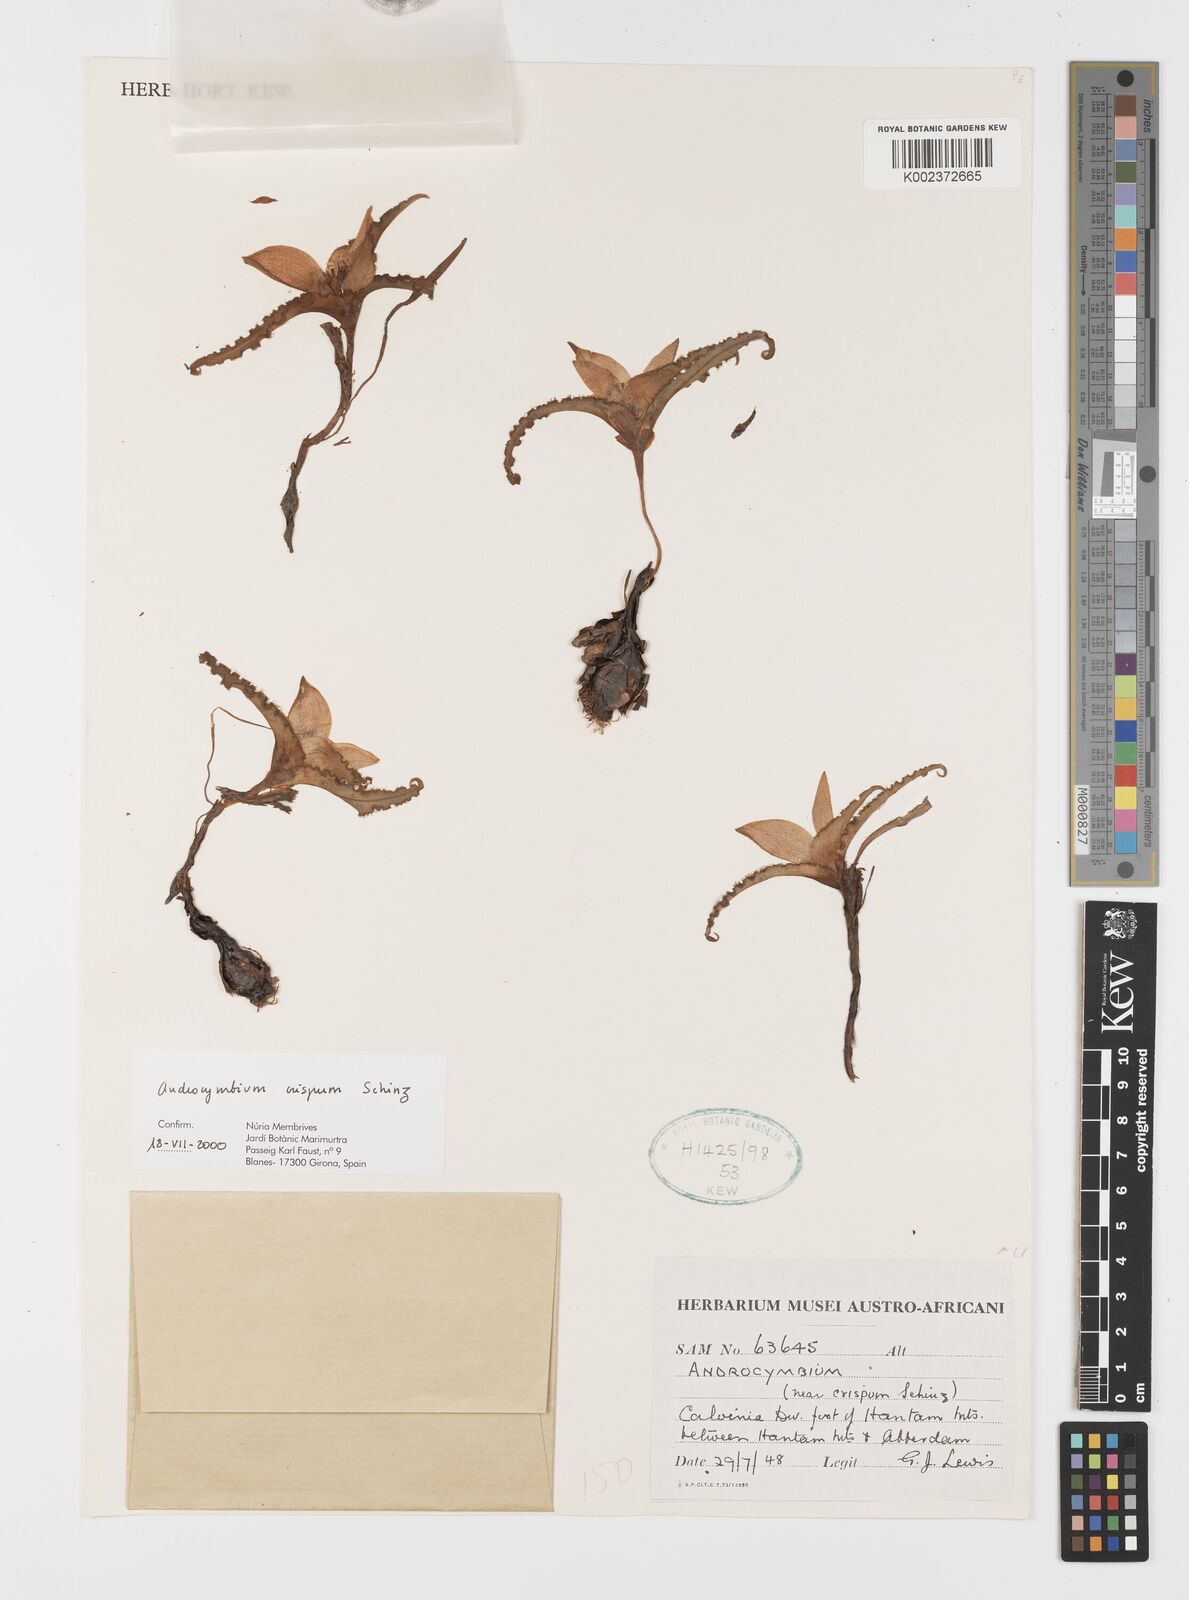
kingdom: Plantae
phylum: Tracheophyta
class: Liliopsida
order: Liliales
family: Colchicaceae
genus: Colchicum
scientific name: Colchicum crispum
